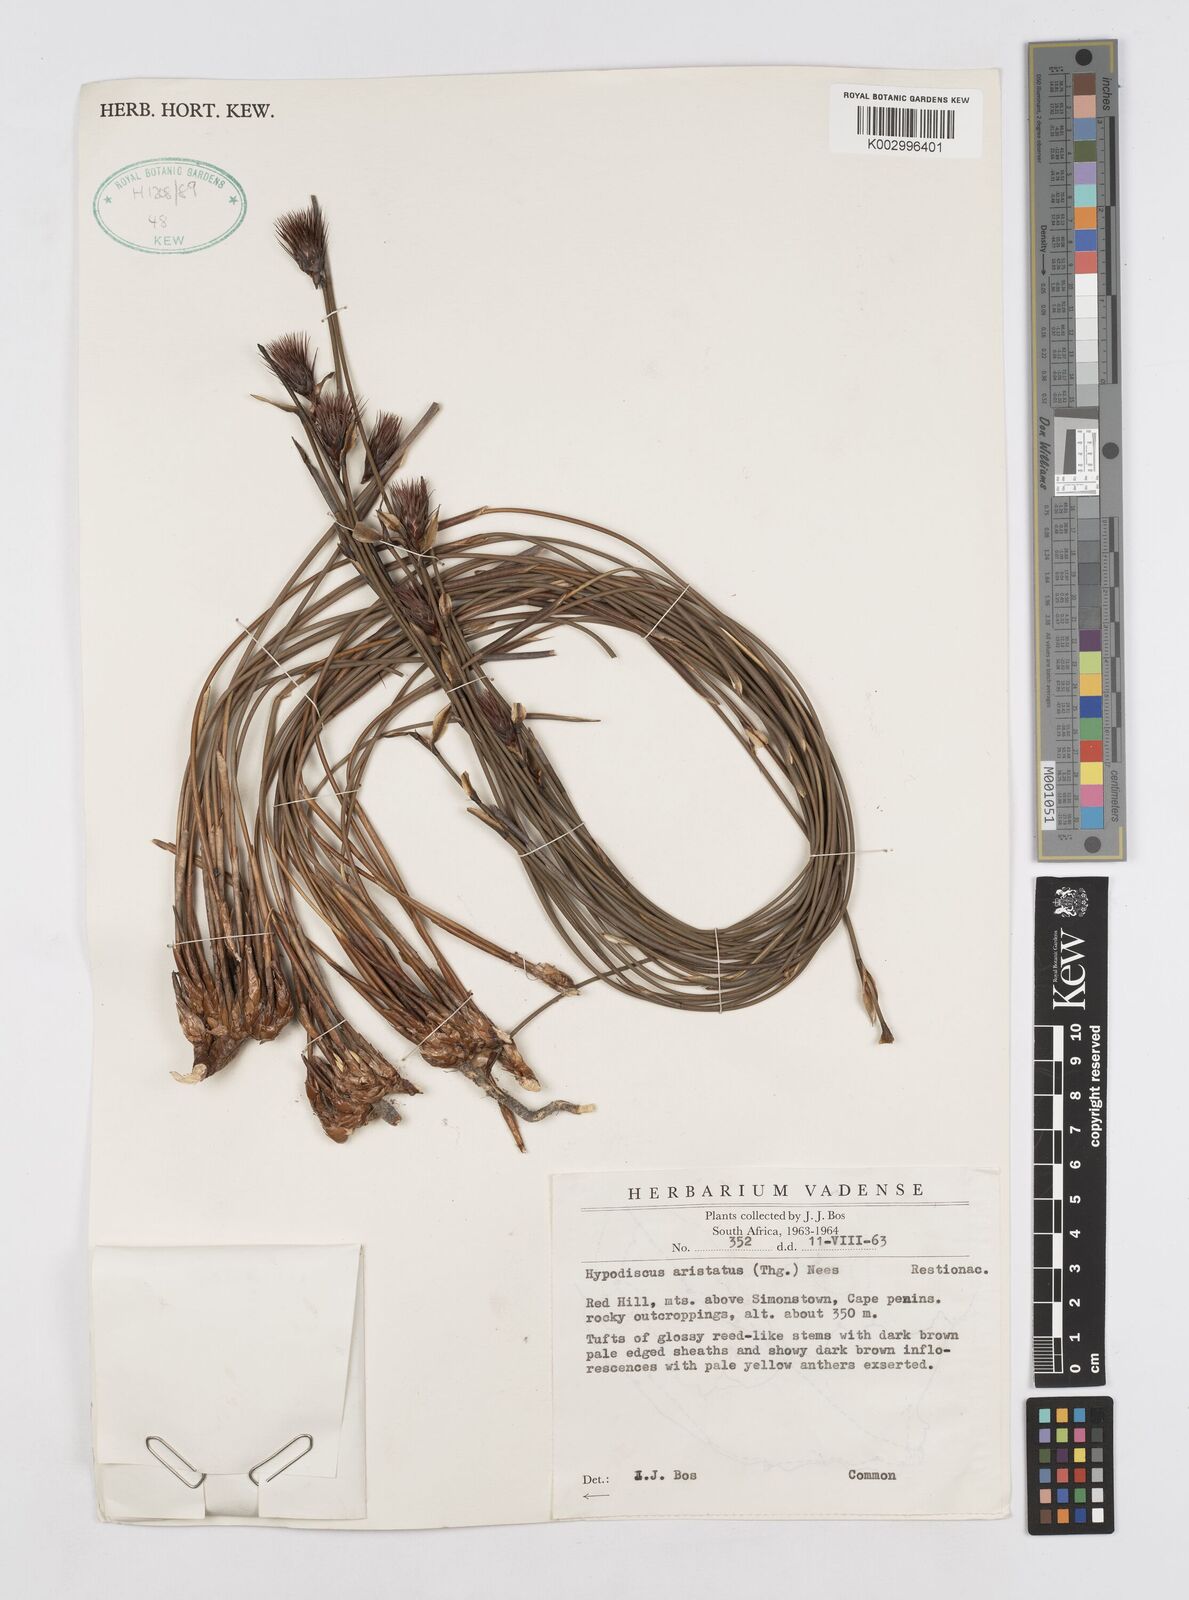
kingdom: Plantae
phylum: Tracheophyta
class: Liliopsida
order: Poales
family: Restionaceae
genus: Hypodiscus
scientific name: Hypodiscus aristatus
